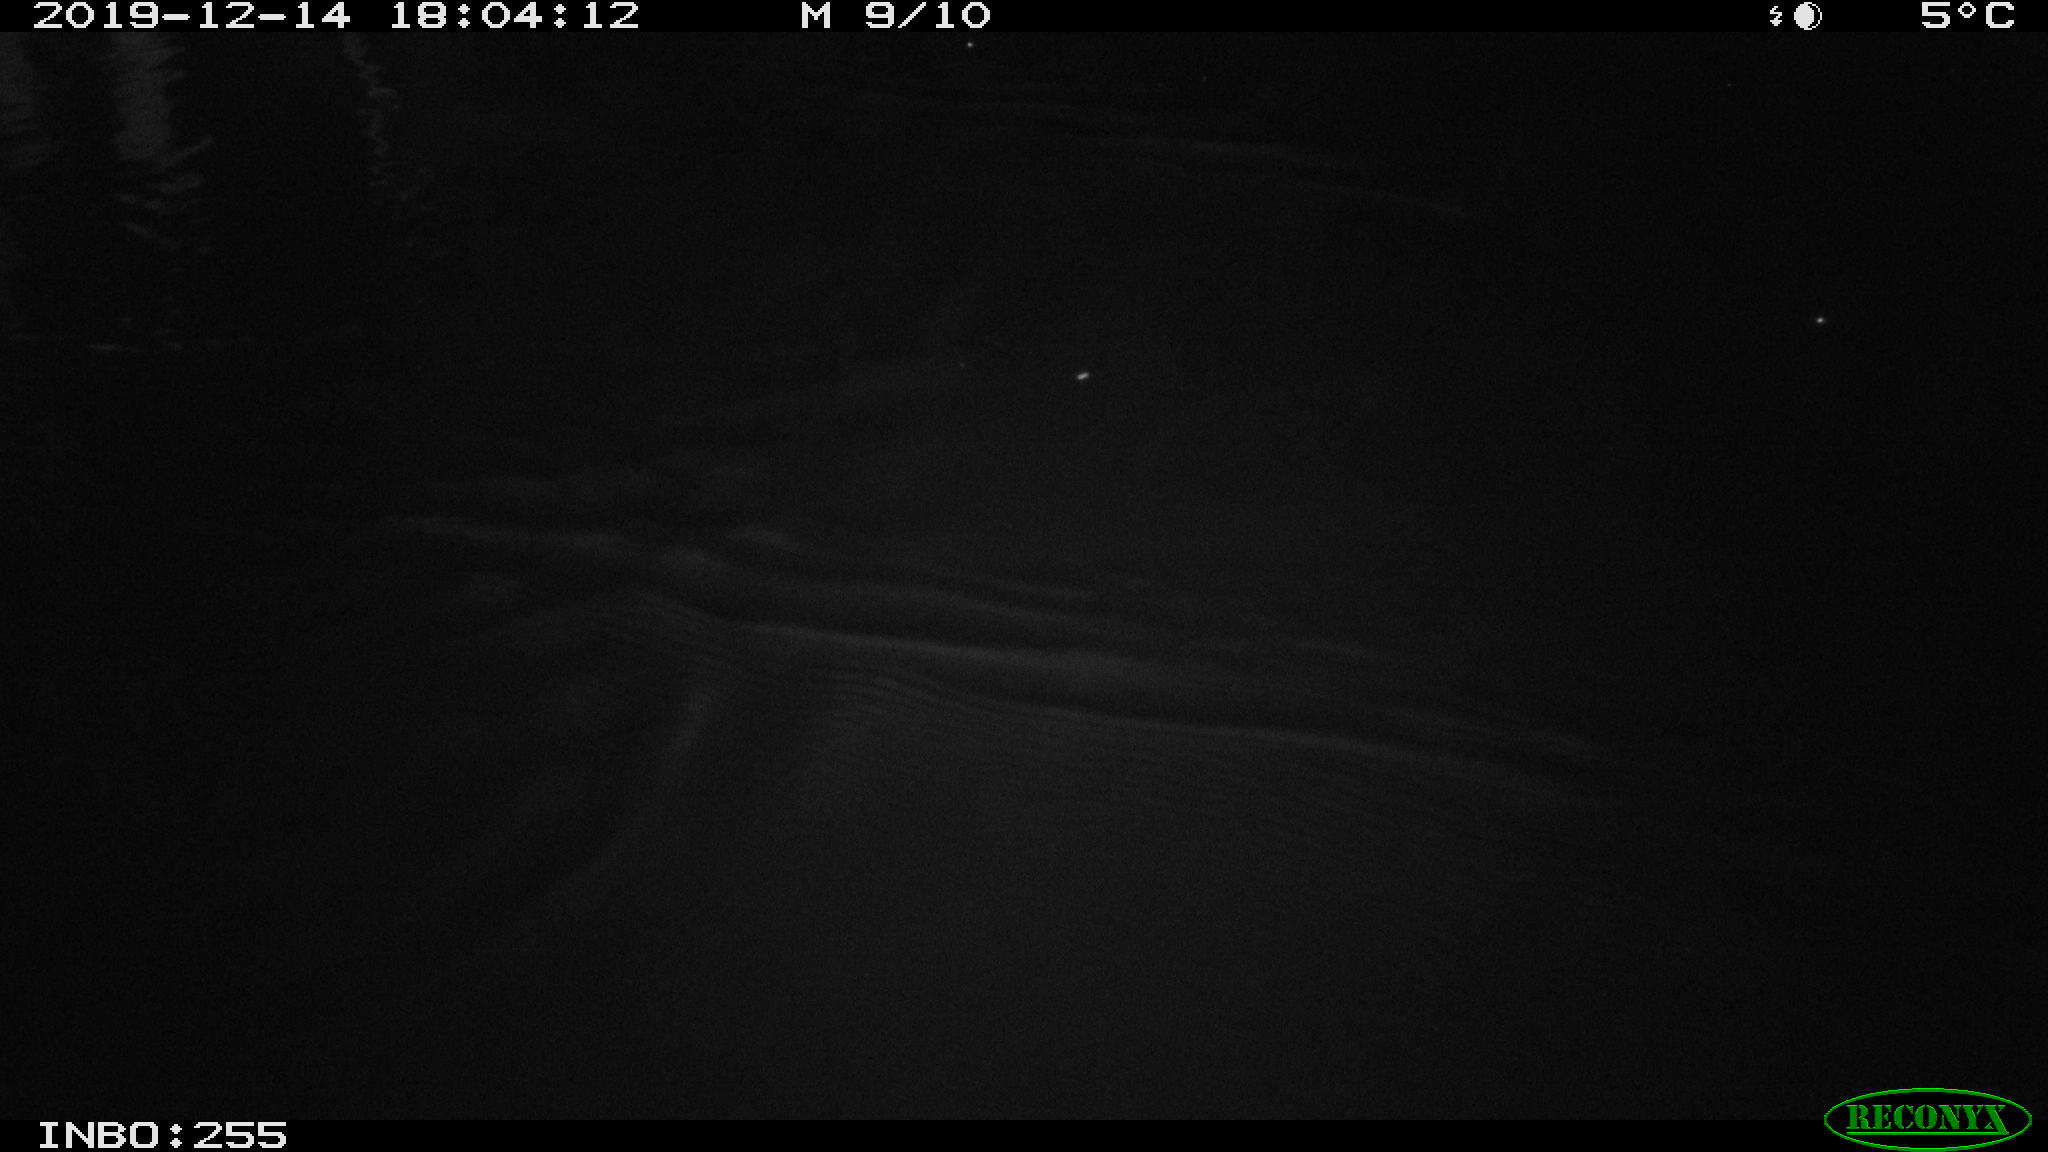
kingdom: Animalia
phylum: Chordata
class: Mammalia
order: Rodentia
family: Muridae
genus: Rattus
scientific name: Rattus norvegicus
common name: Brown rat
